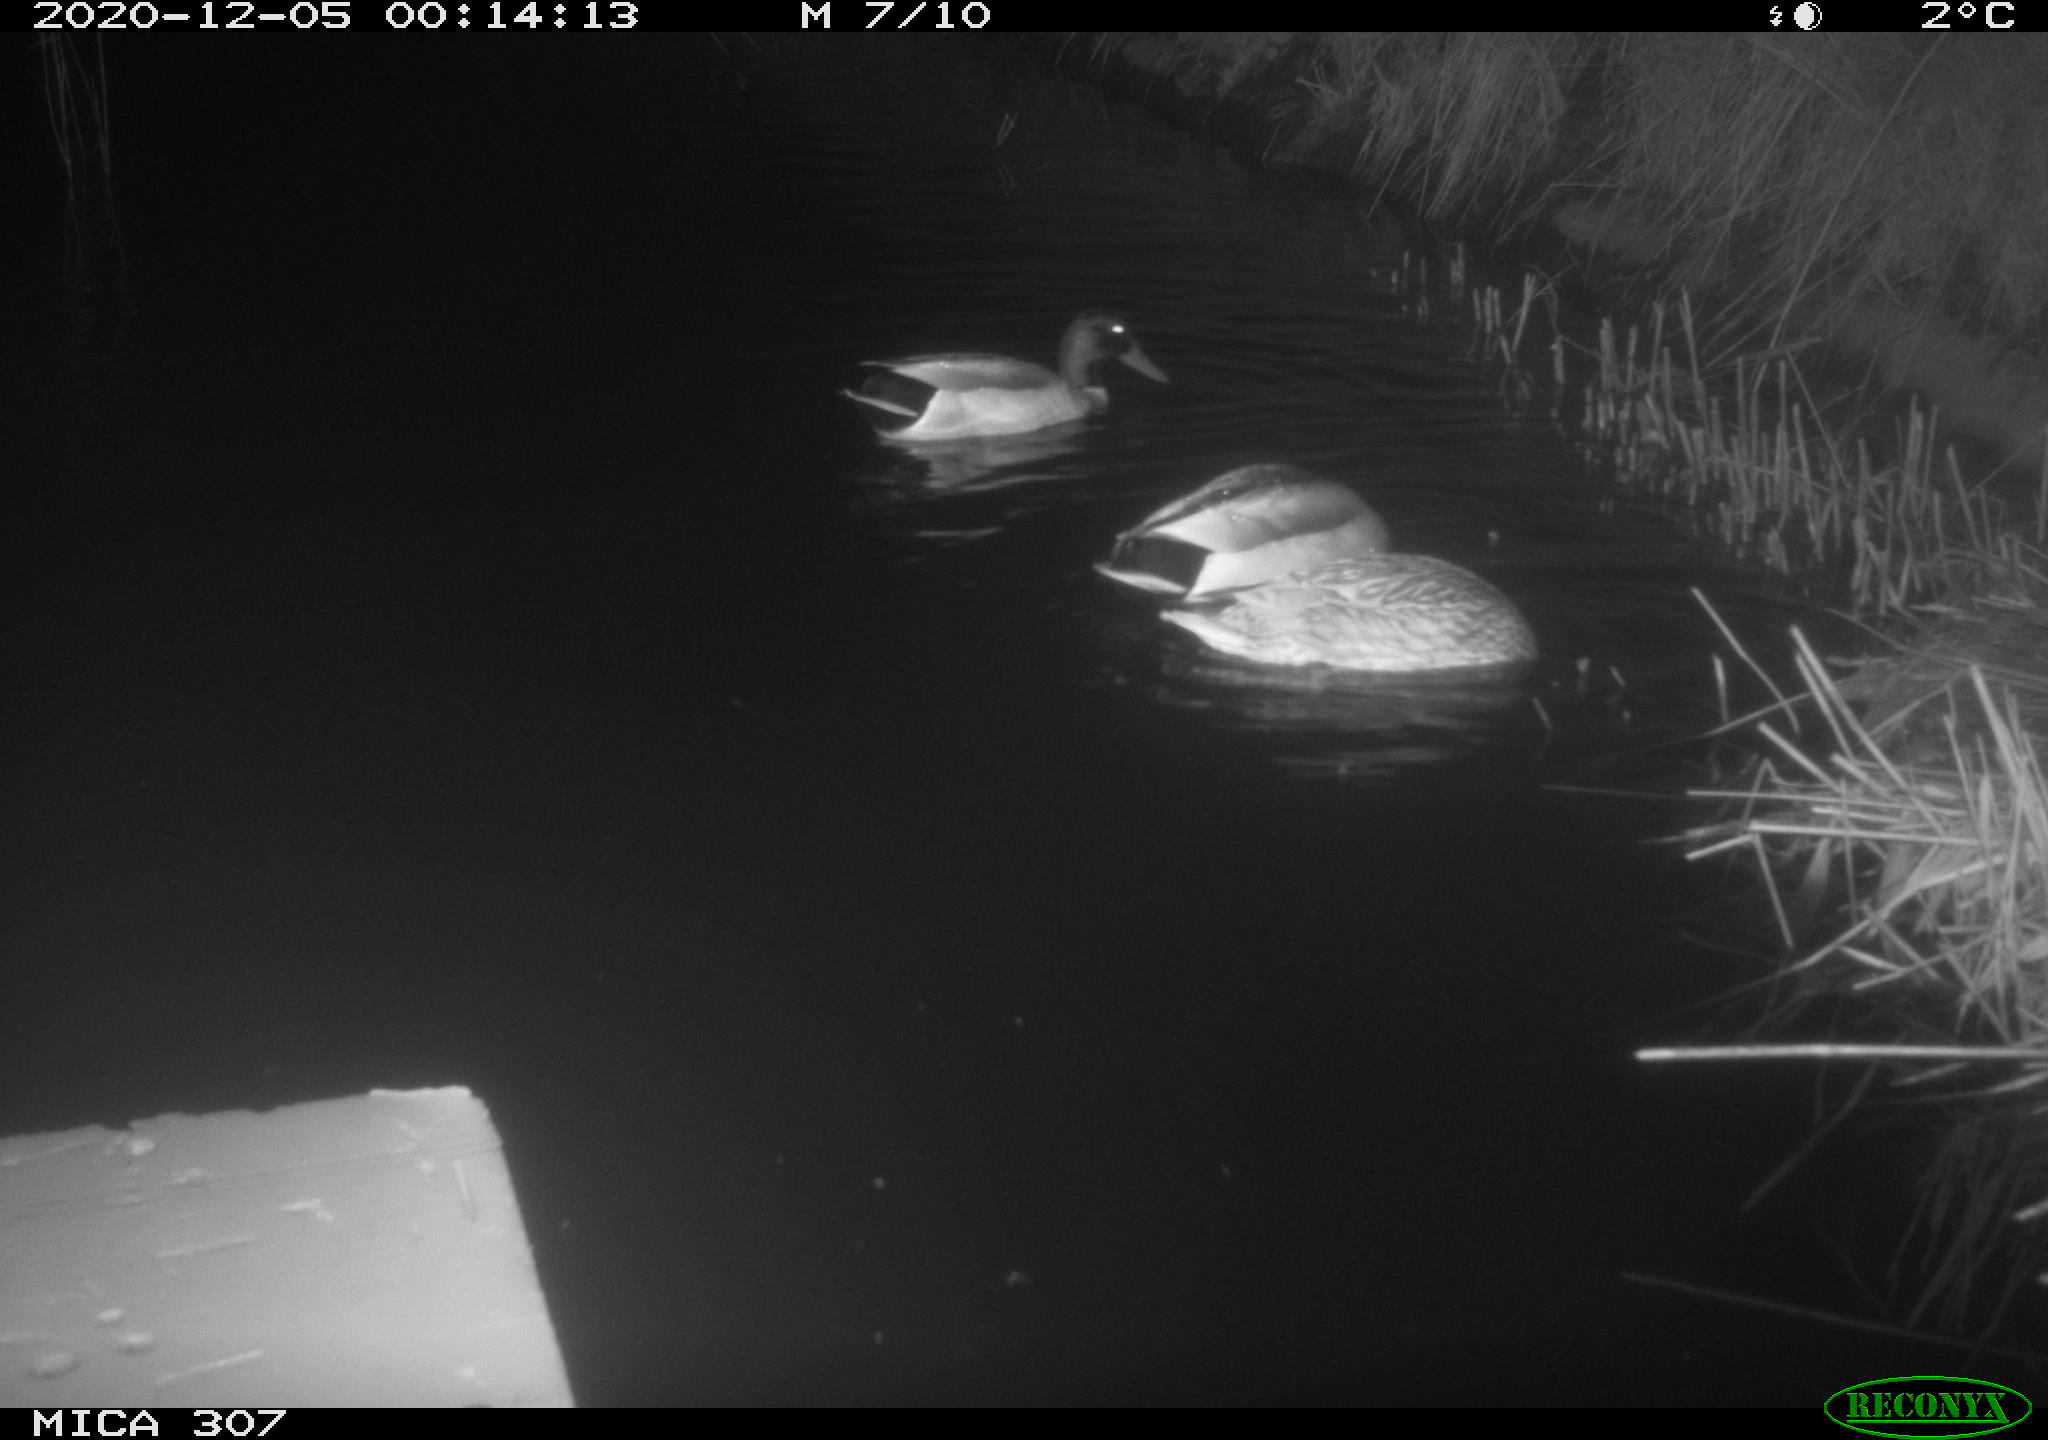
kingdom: Animalia
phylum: Chordata
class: Aves
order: Anseriformes
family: Anatidae
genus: Anas
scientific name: Anas platyrhynchos
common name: Mallard
